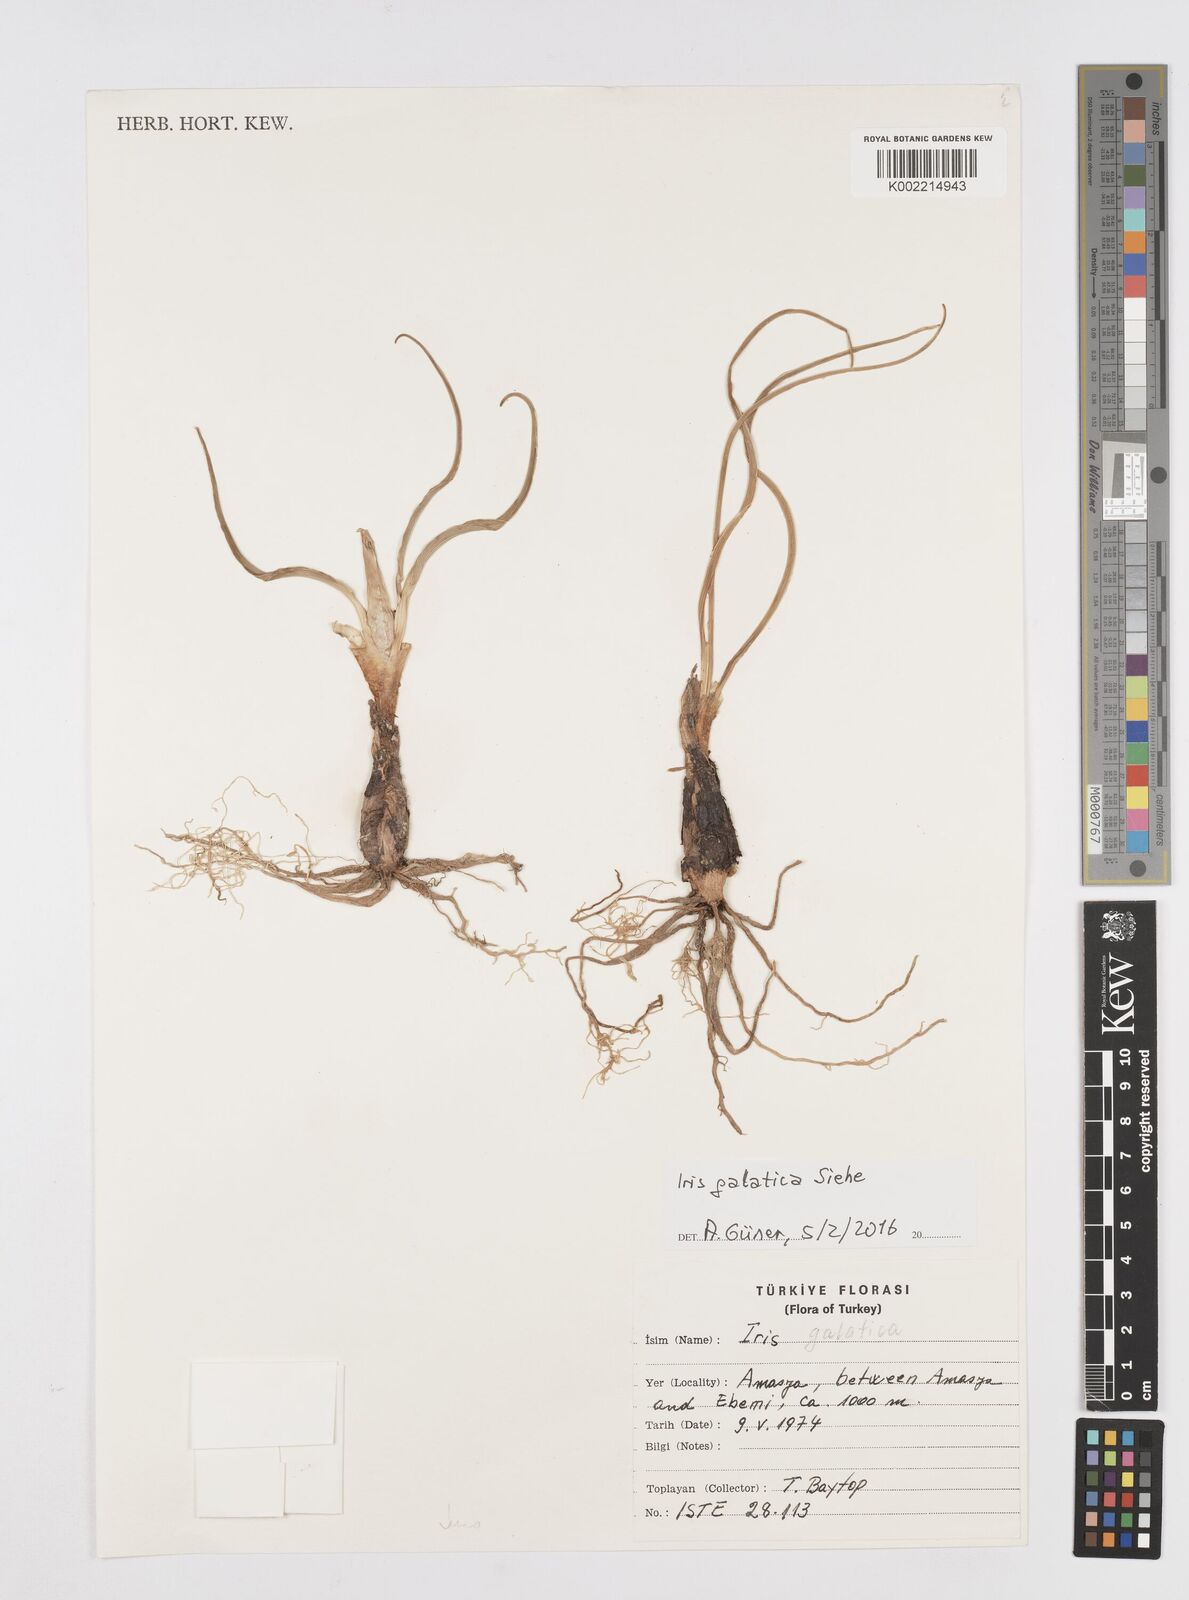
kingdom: Plantae
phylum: Tracheophyta
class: Liliopsida
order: Asparagales
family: Iridaceae
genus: Iris
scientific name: Iris galatica
